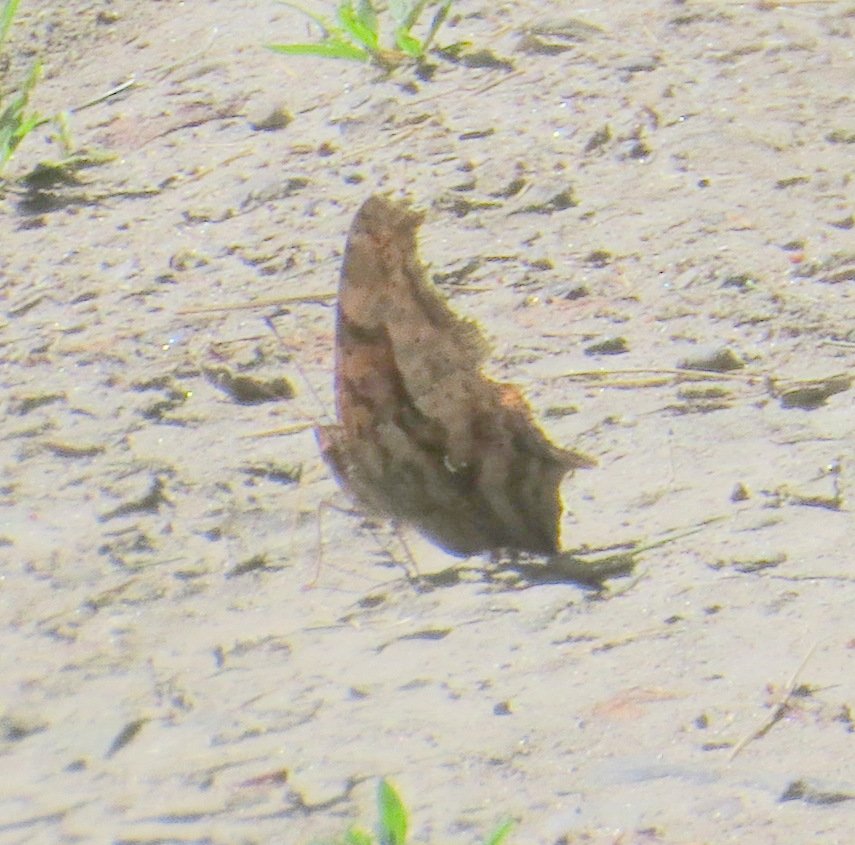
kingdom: Animalia
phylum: Arthropoda
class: Insecta
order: Lepidoptera
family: Nymphalidae
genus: Polygonia
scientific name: Polygonia interrogationis
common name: Question Mark
